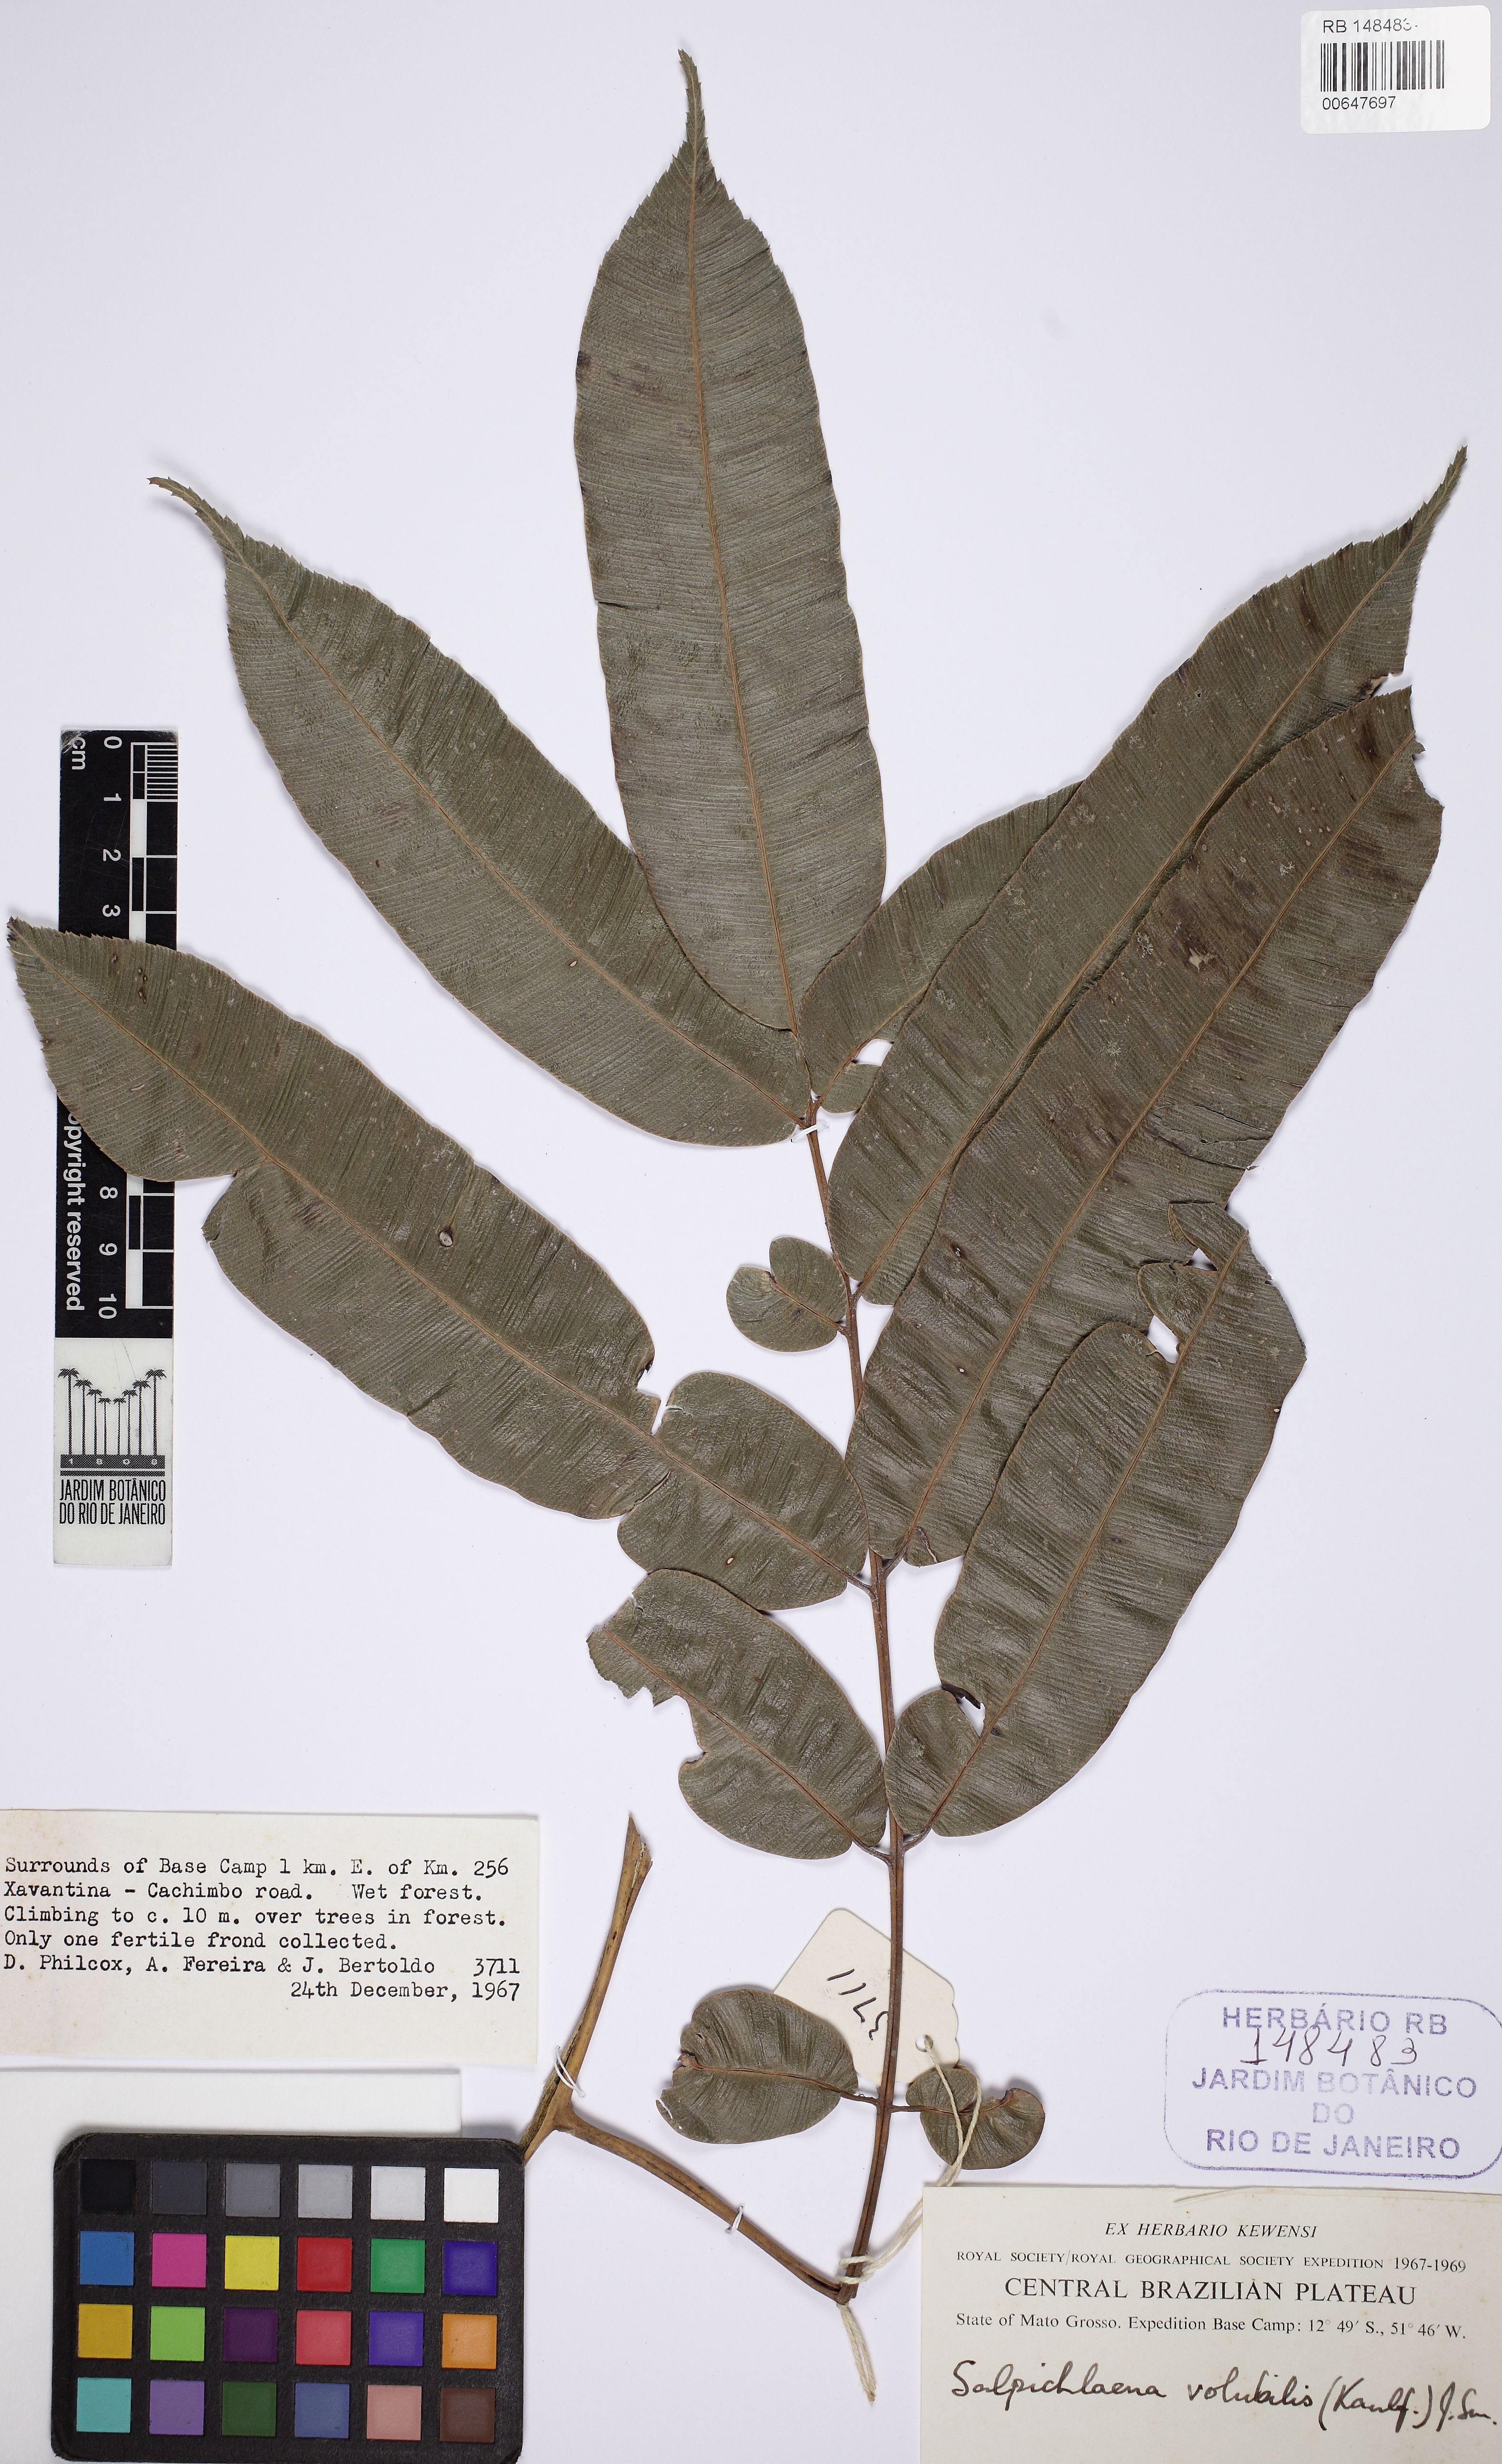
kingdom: Plantae
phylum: Tracheophyta
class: Polypodiopsida
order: Polypodiales
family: Blechnaceae
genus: Salpichlaena
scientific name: Salpichlaena hookeriana
